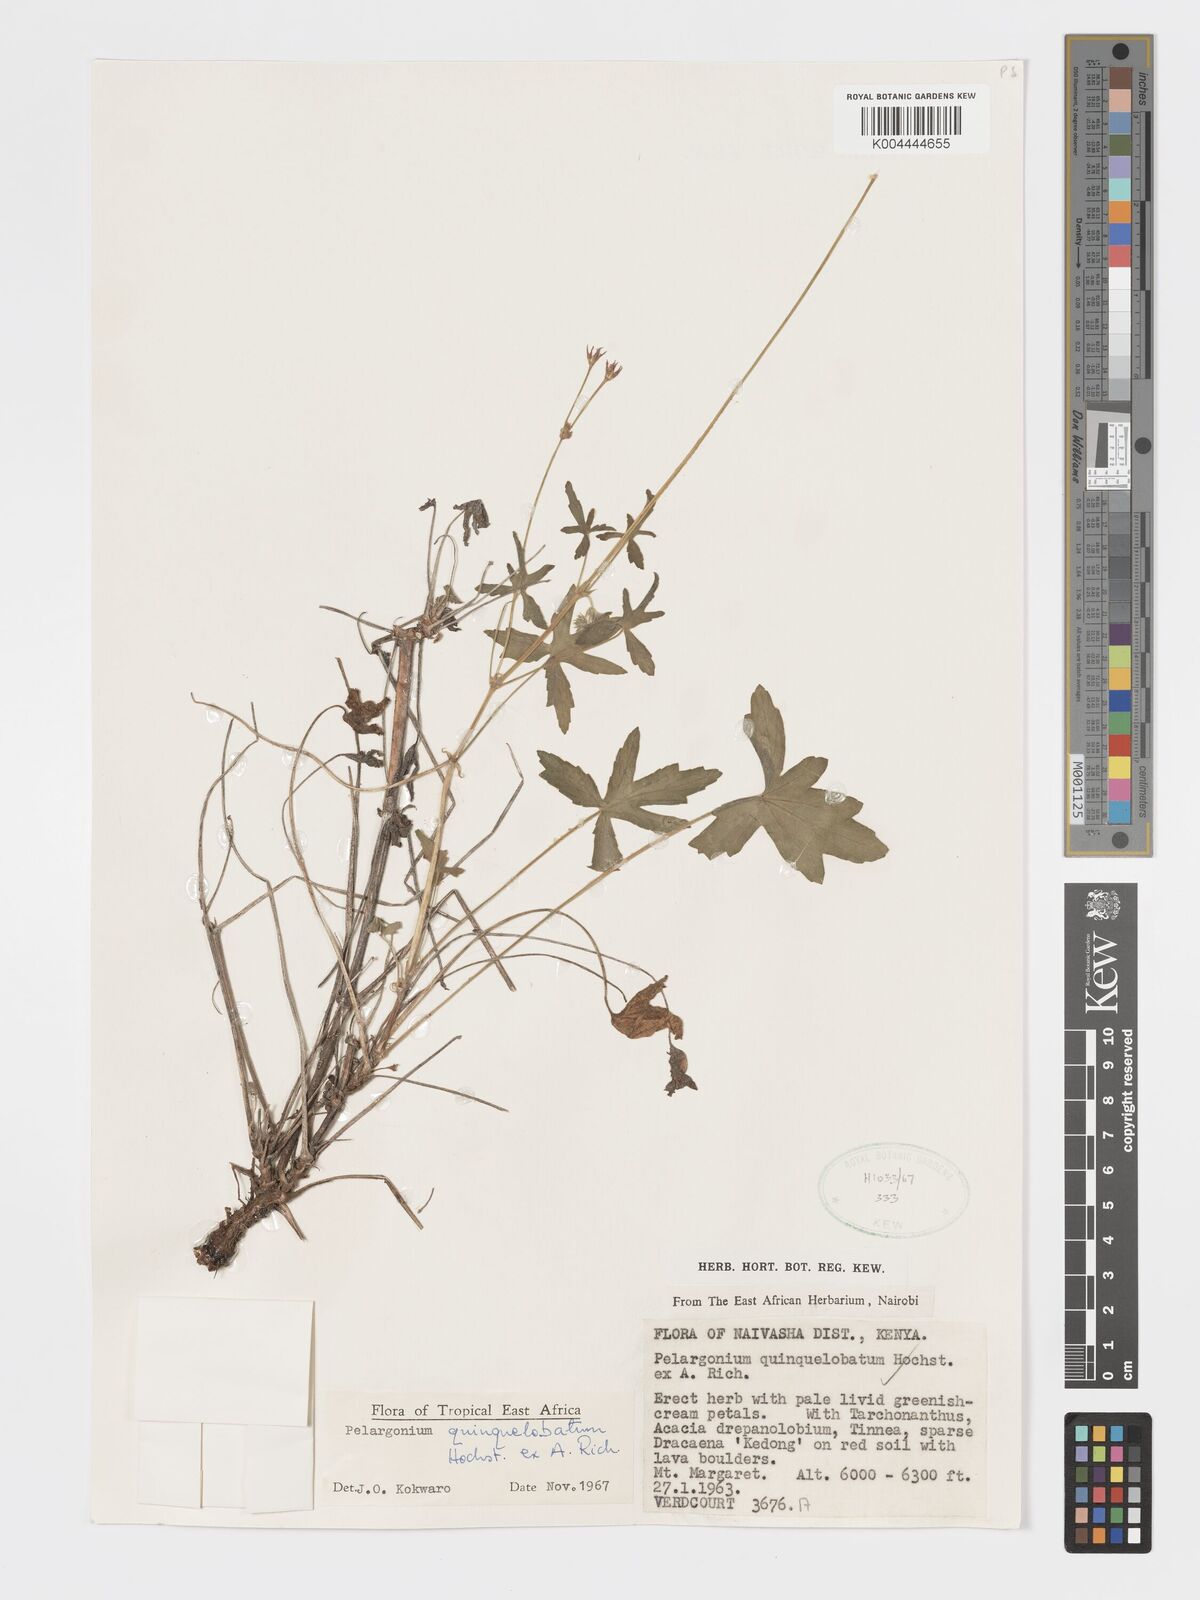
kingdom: Plantae
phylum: Tracheophyta
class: Magnoliopsida
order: Geraniales
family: Geraniaceae
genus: Pelargonium
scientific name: Pelargonium quinquelobatum
